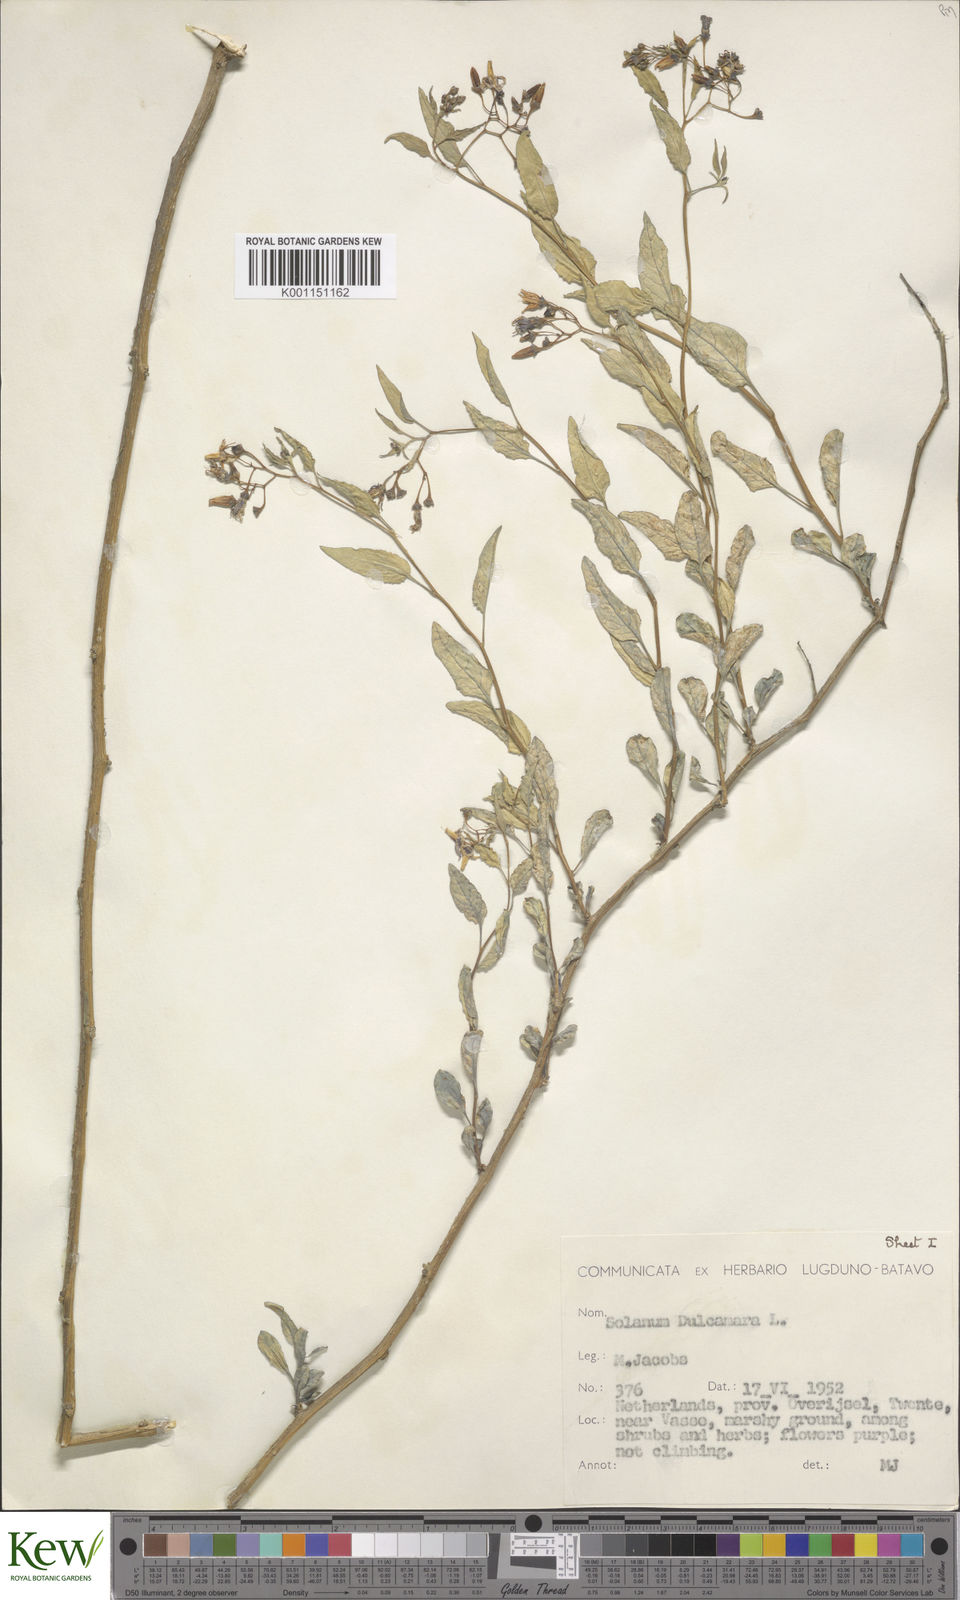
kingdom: Plantae
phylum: Tracheophyta
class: Magnoliopsida
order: Solanales
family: Solanaceae
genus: Solanum
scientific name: Solanum dulcamara
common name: Climbing nightshade
